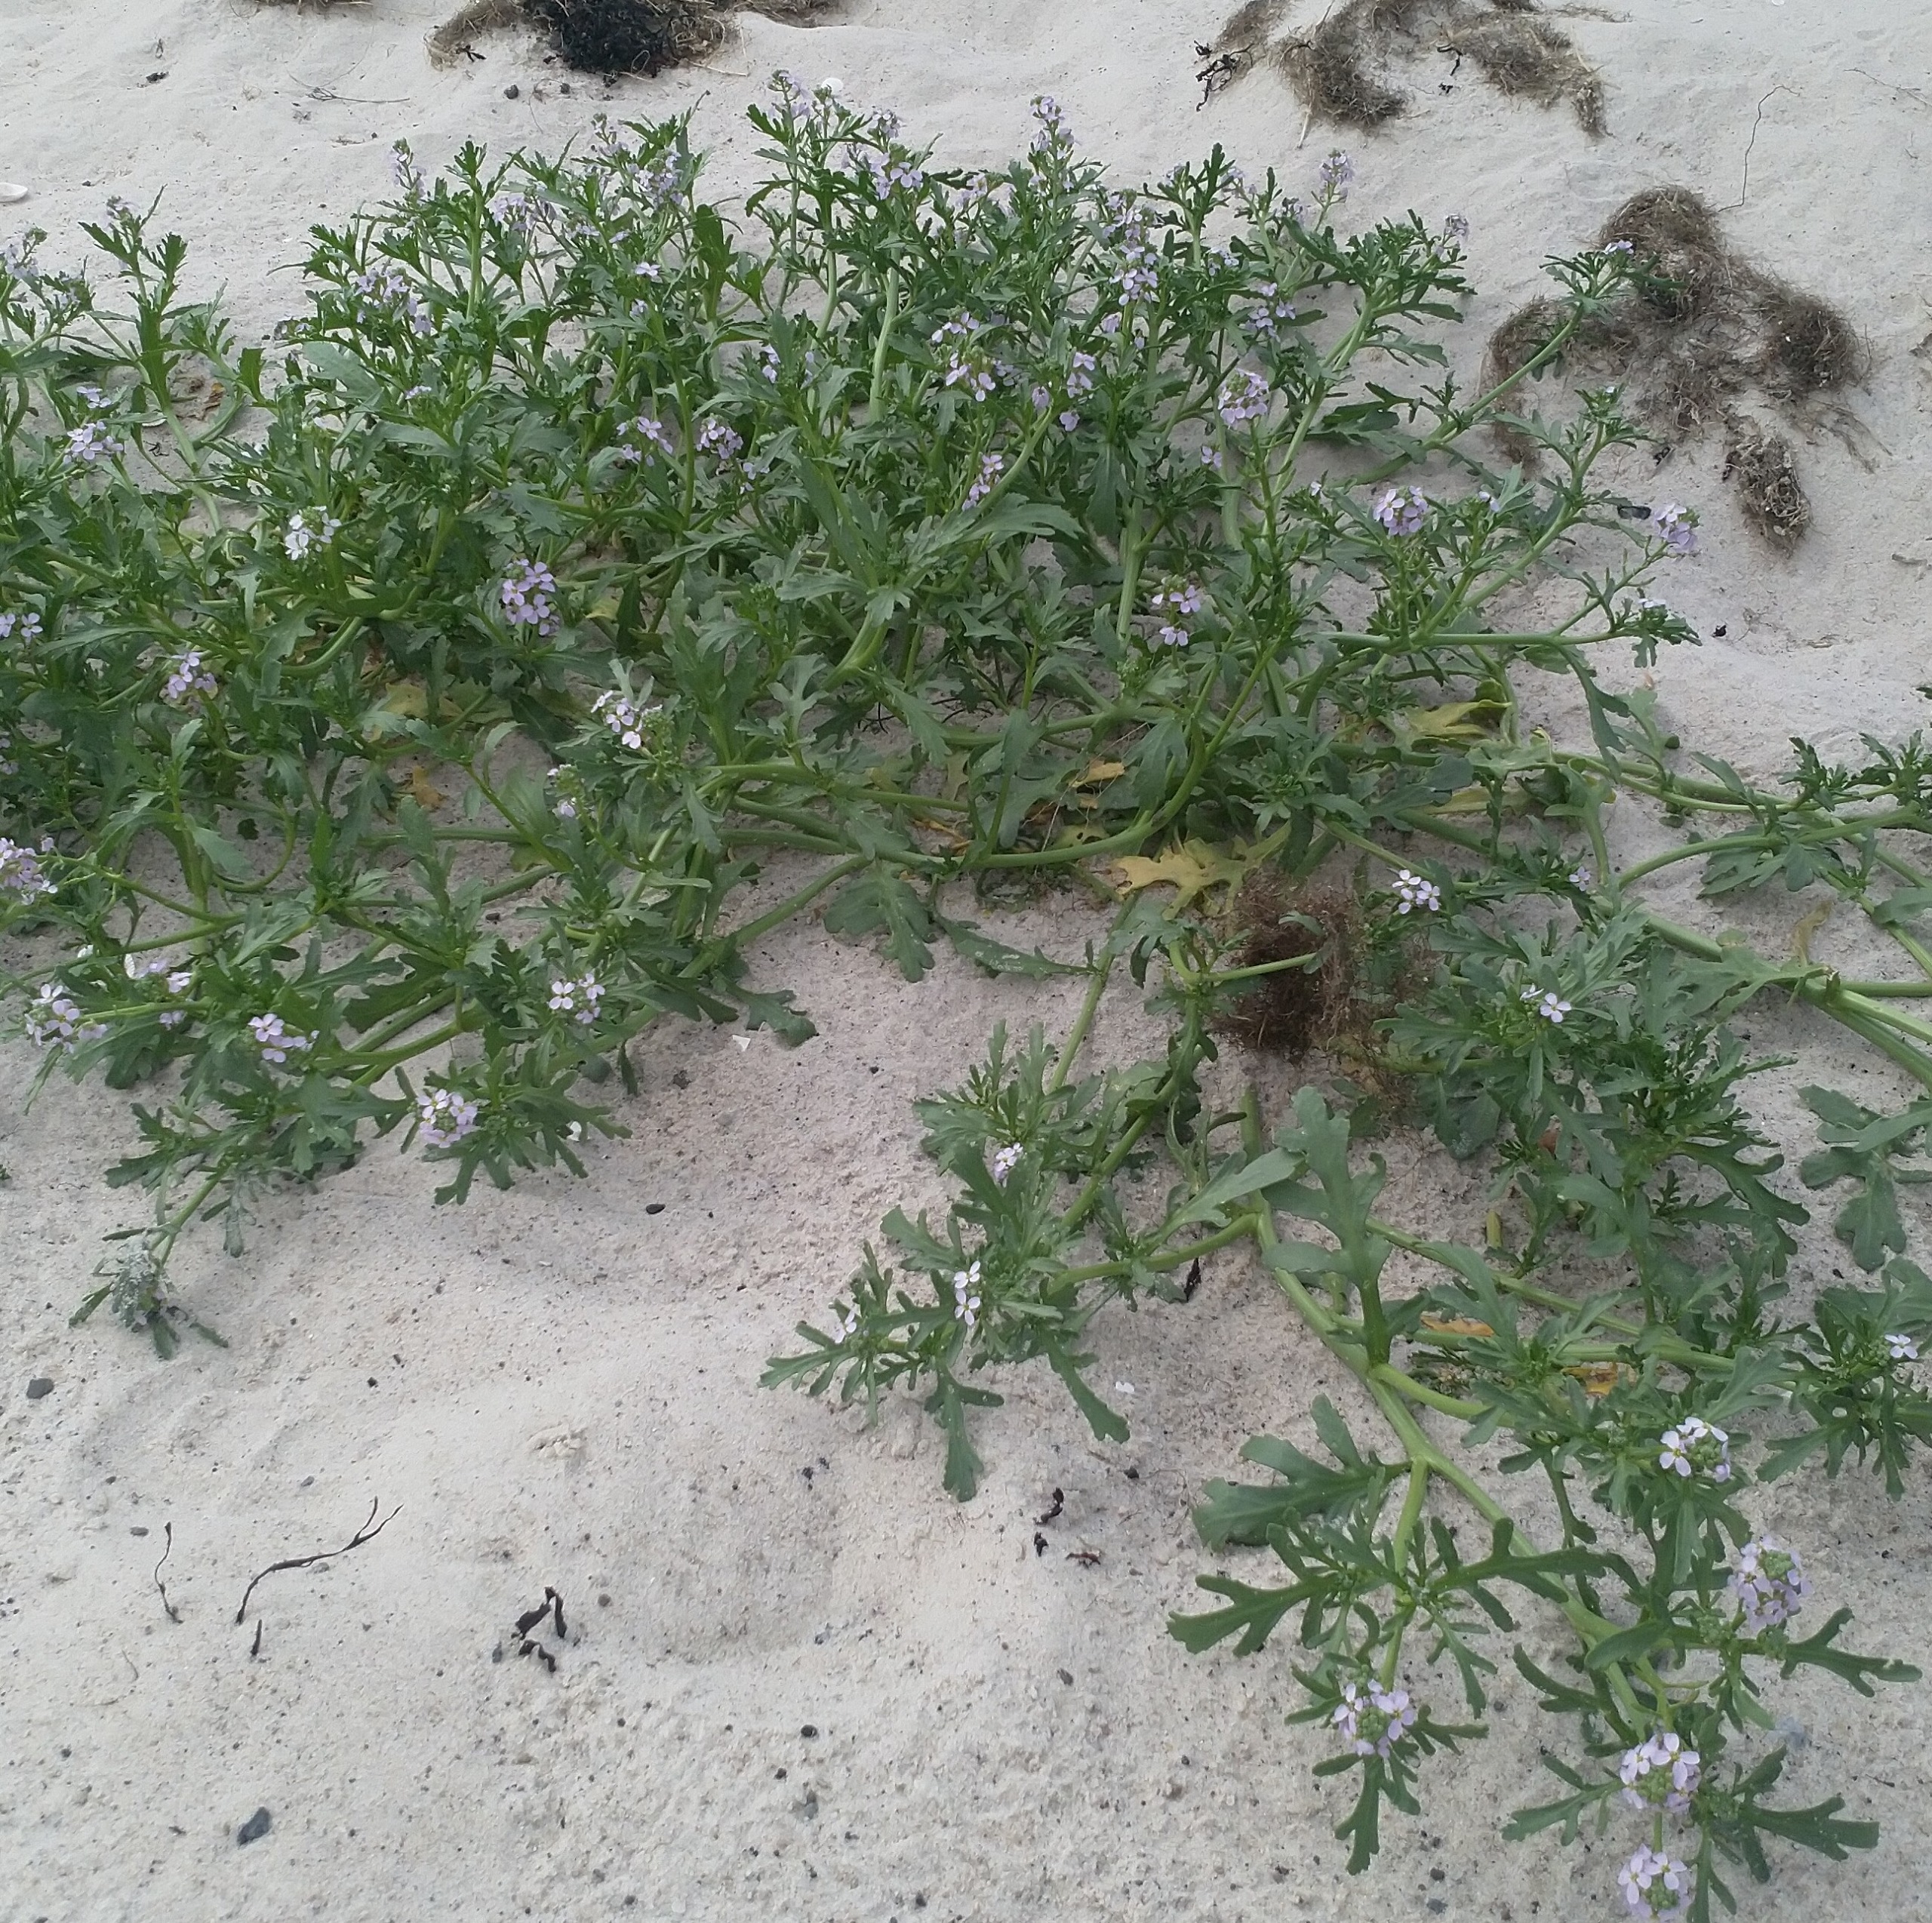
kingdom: Plantae
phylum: Tracheophyta
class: Magnoliopsida
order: Brassicales
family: Brassicaceae
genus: Cakile
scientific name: Cakile maritima
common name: Strandsennep
